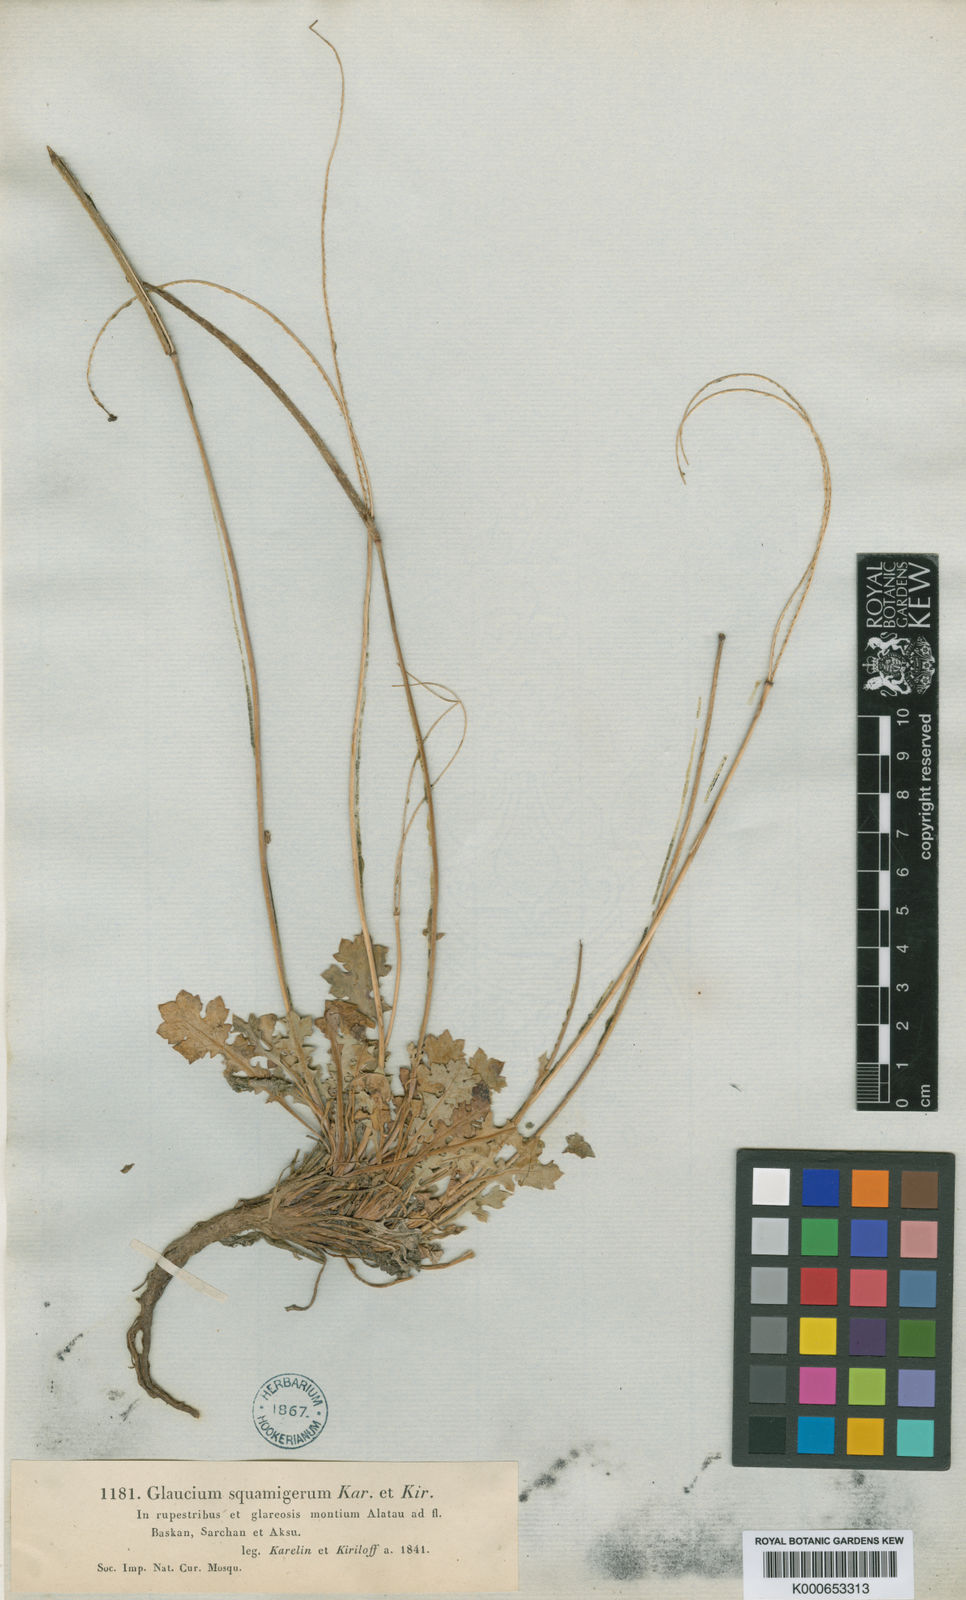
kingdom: Plantae
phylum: Tracheophyta
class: Magnoliopsida
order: Ranunculales
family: Papaveraceae
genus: Glaucium
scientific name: Glaucium squamigerum
